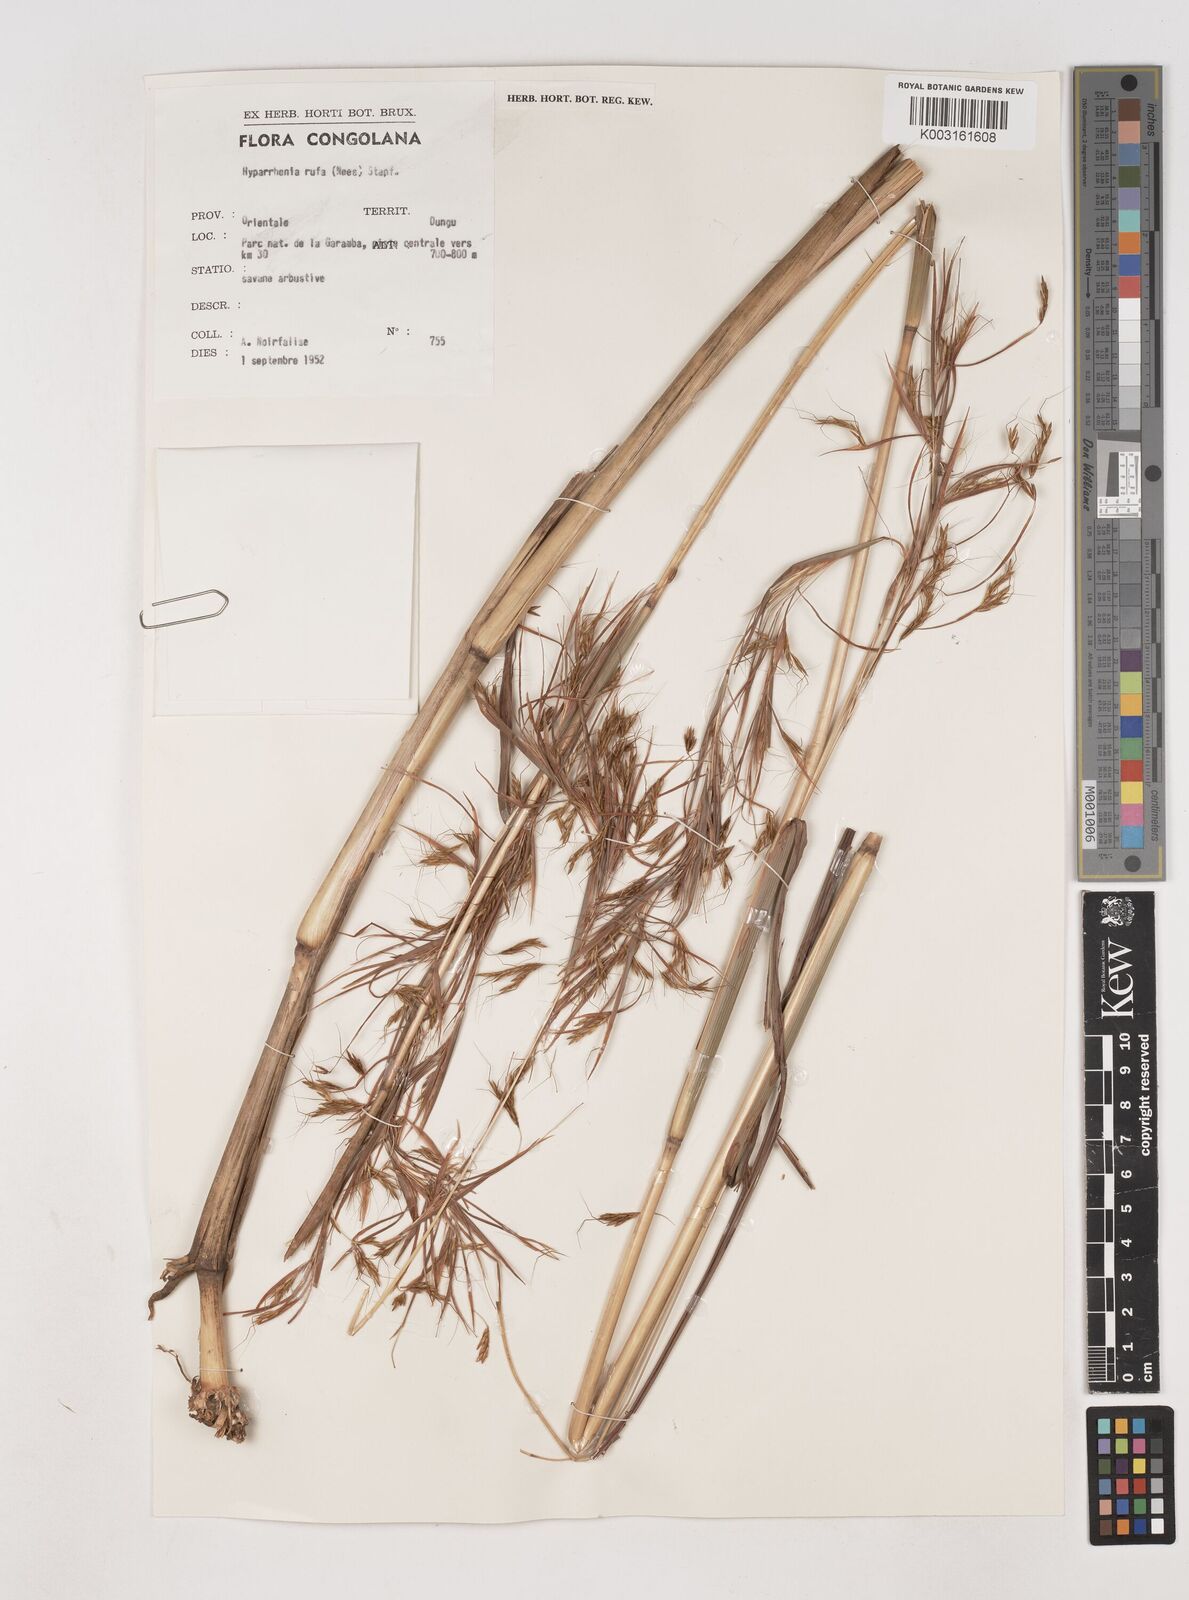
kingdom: Plantae
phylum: Tracheophyta
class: Liliopsida
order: Poales
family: Poaceae
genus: Hyparrhenia
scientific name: Hyparrhenia rufa
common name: Jaraguagrass
